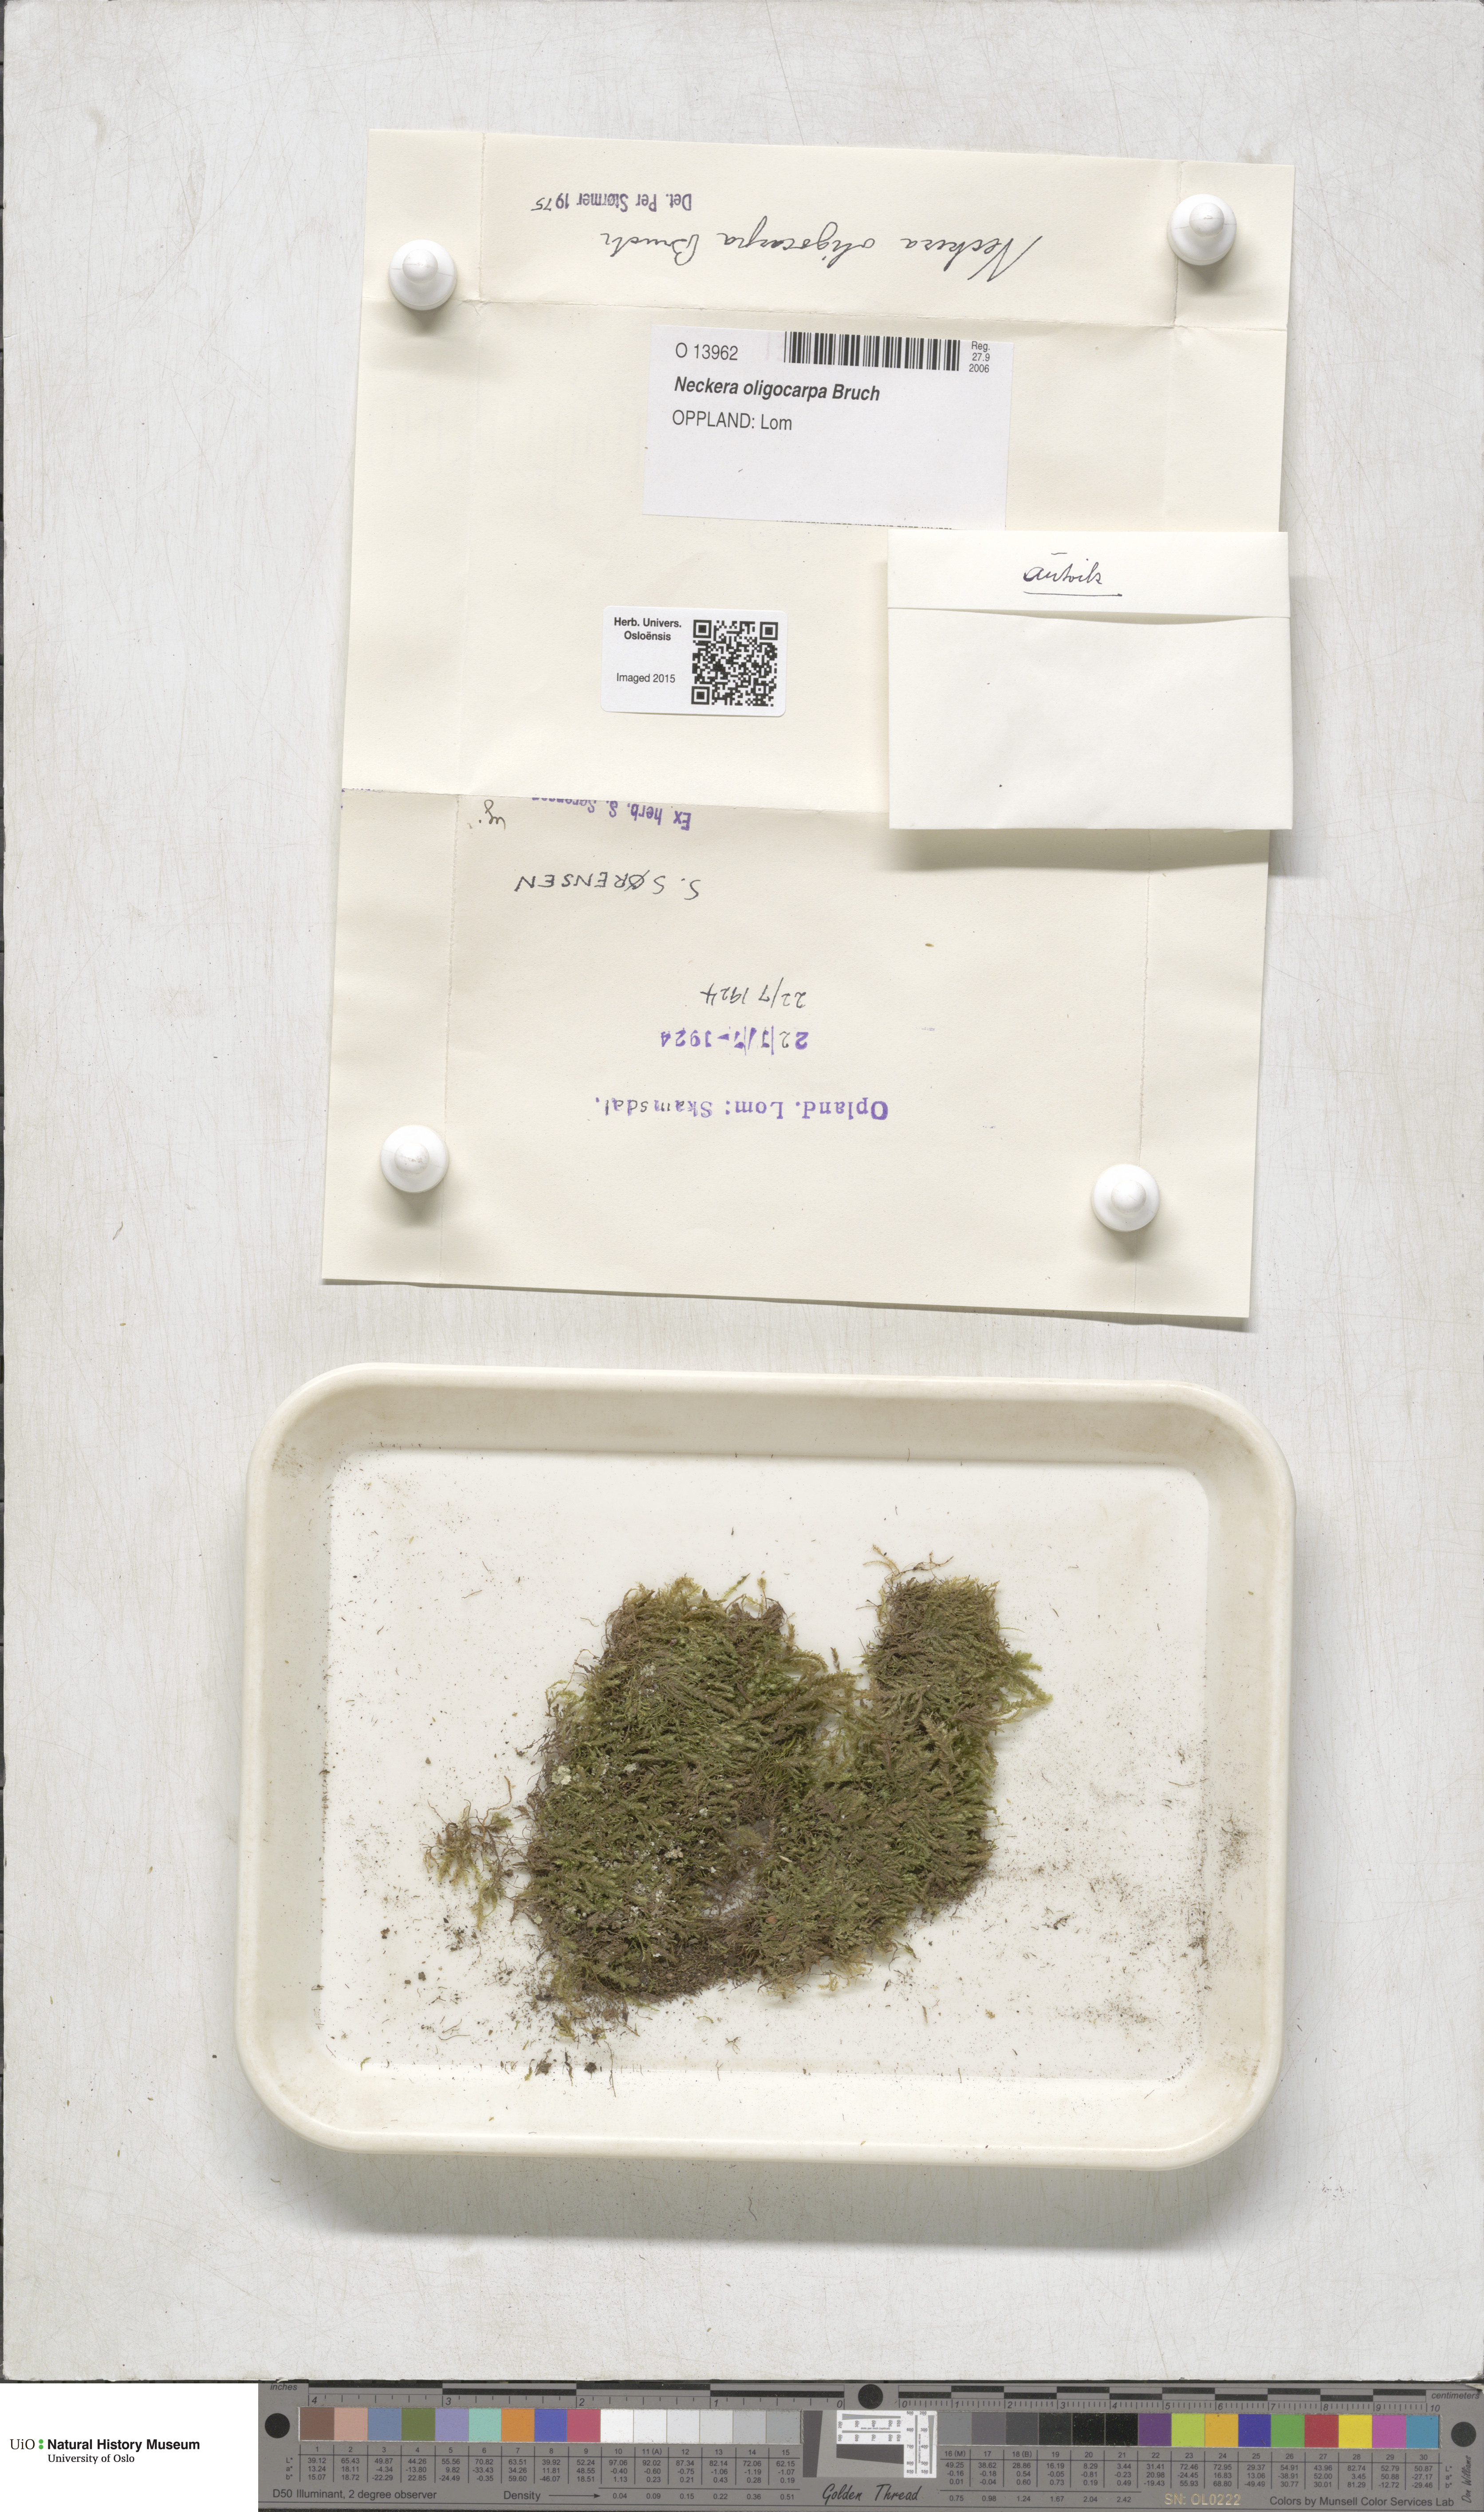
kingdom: Plantae
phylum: Bryophyta
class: Bryopsida
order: Hypnales
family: Neckeraceae
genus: Neckera
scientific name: Neckera oligocarpa
